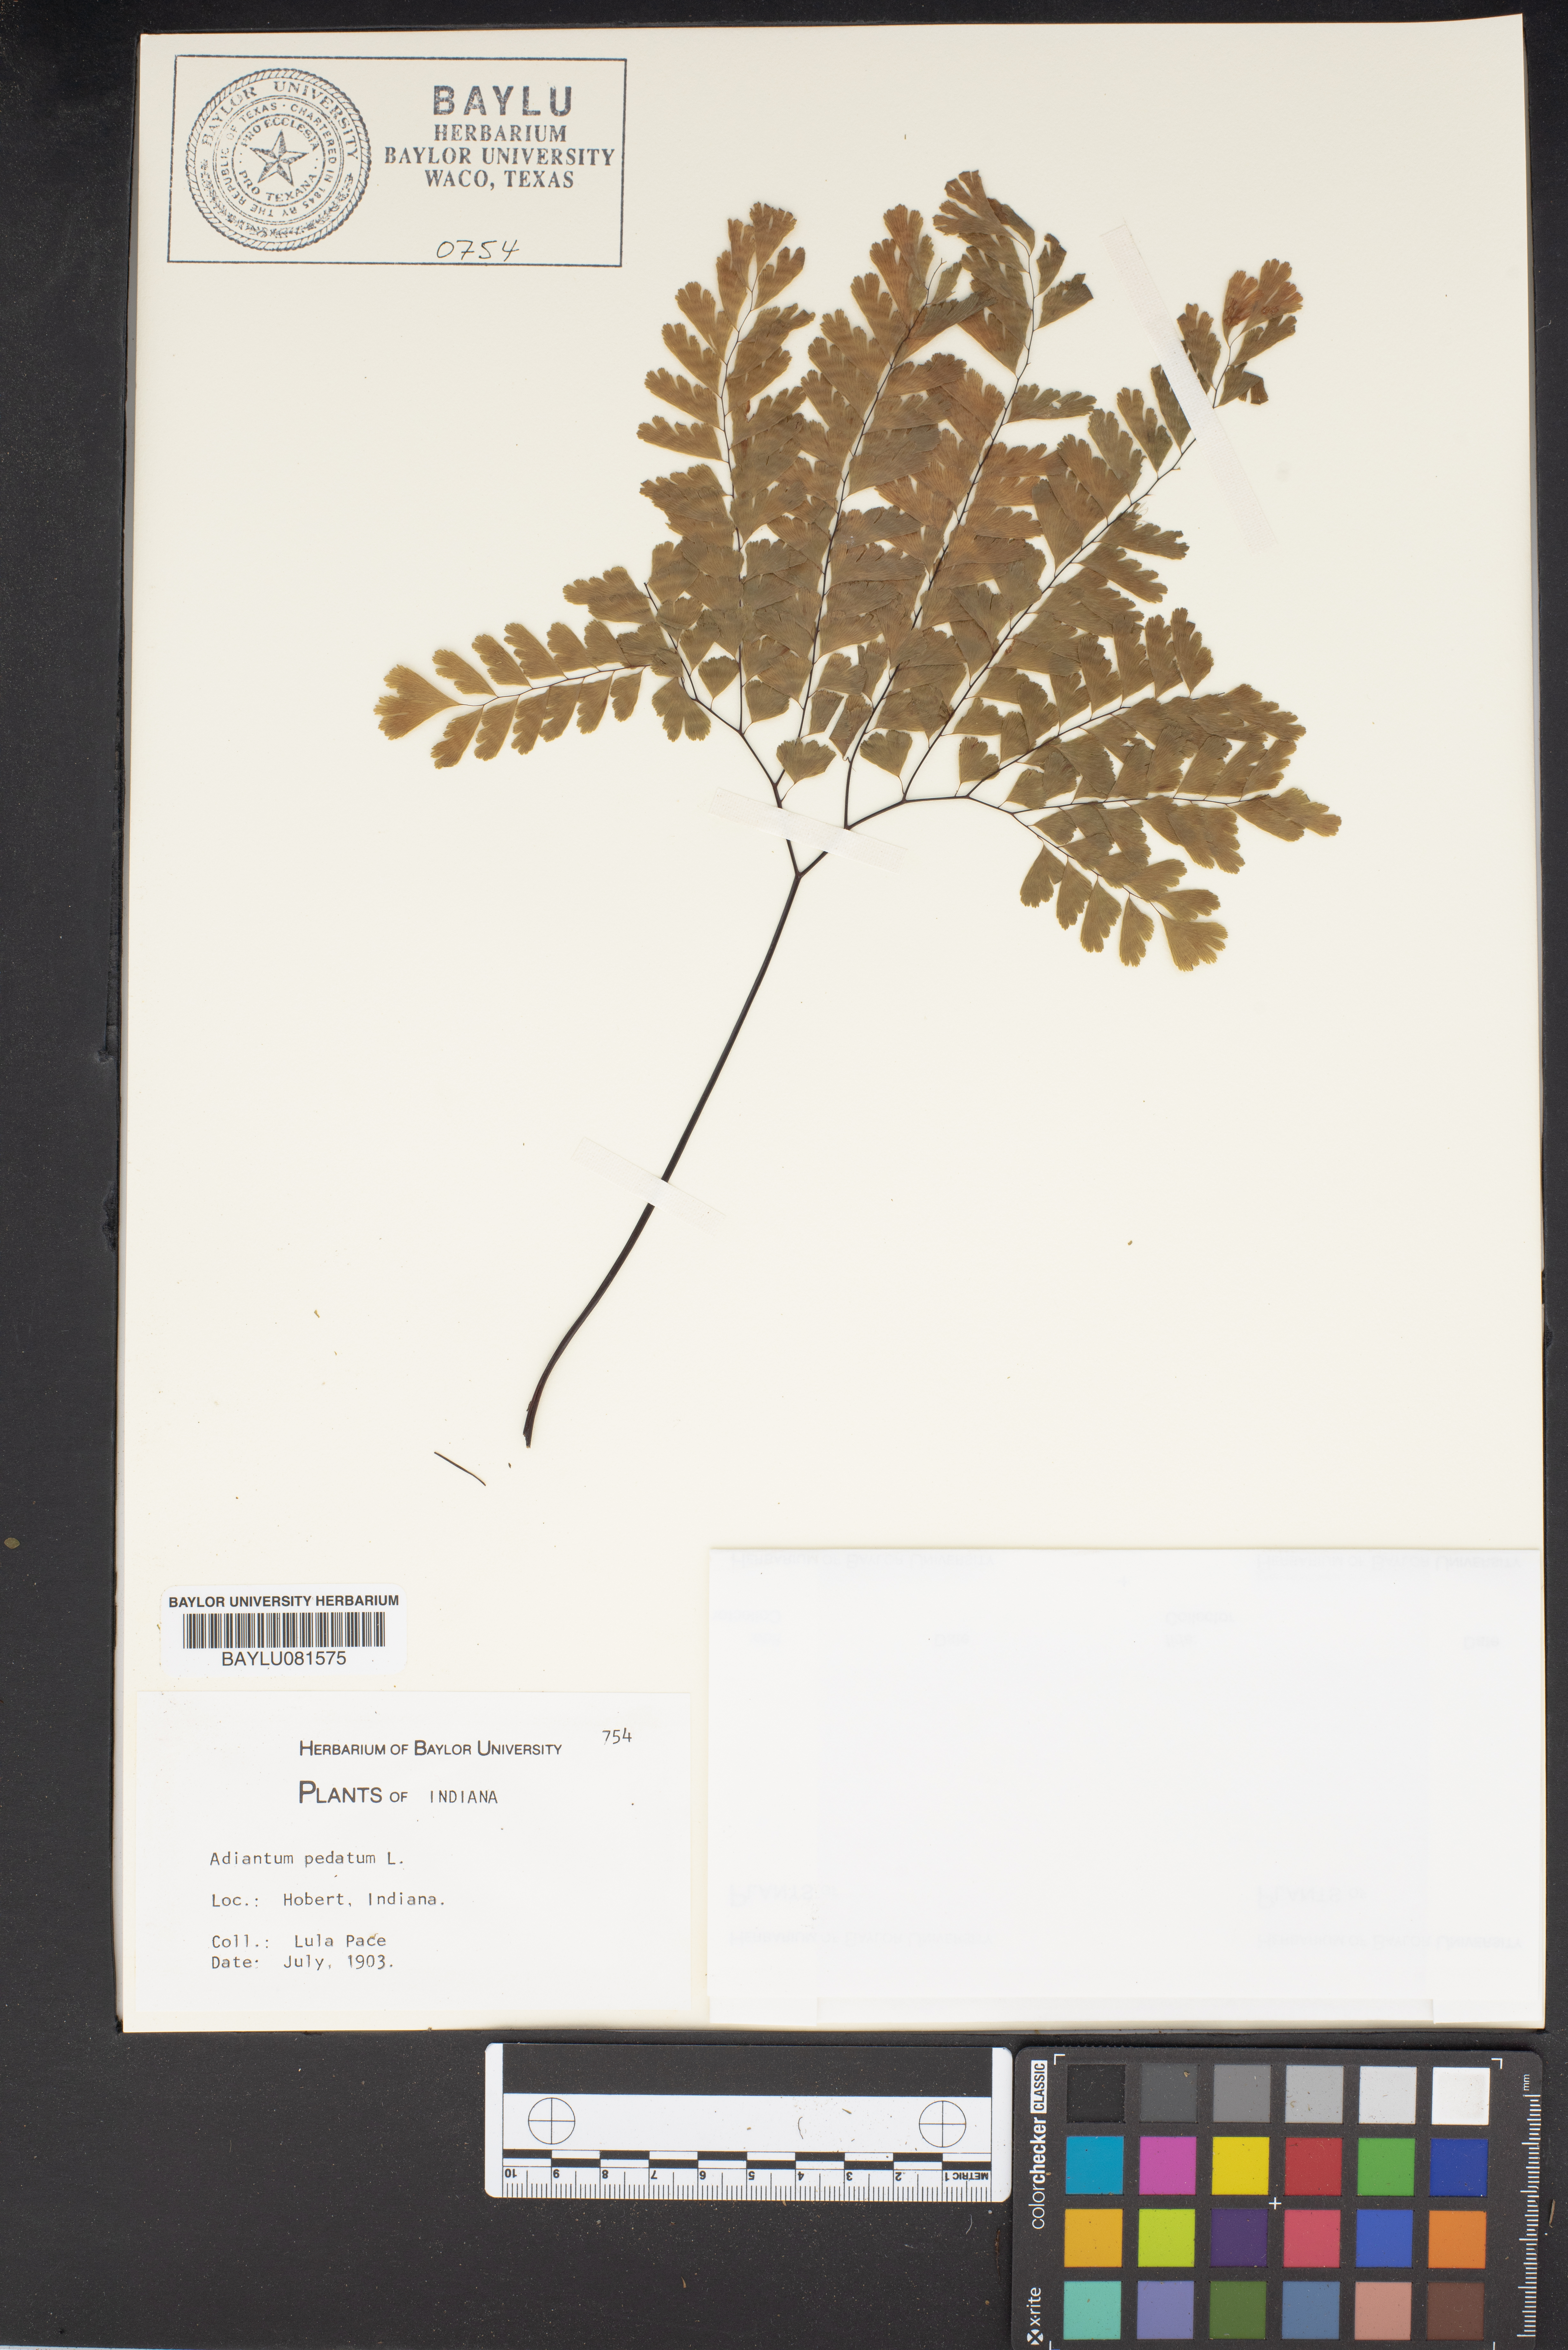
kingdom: Plantae
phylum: Tracheophyta
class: Polypodiopsida
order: Polypodiales
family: Pteridaceae
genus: Adiantum
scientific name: Adiantum pedatum
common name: Five-finger fern
